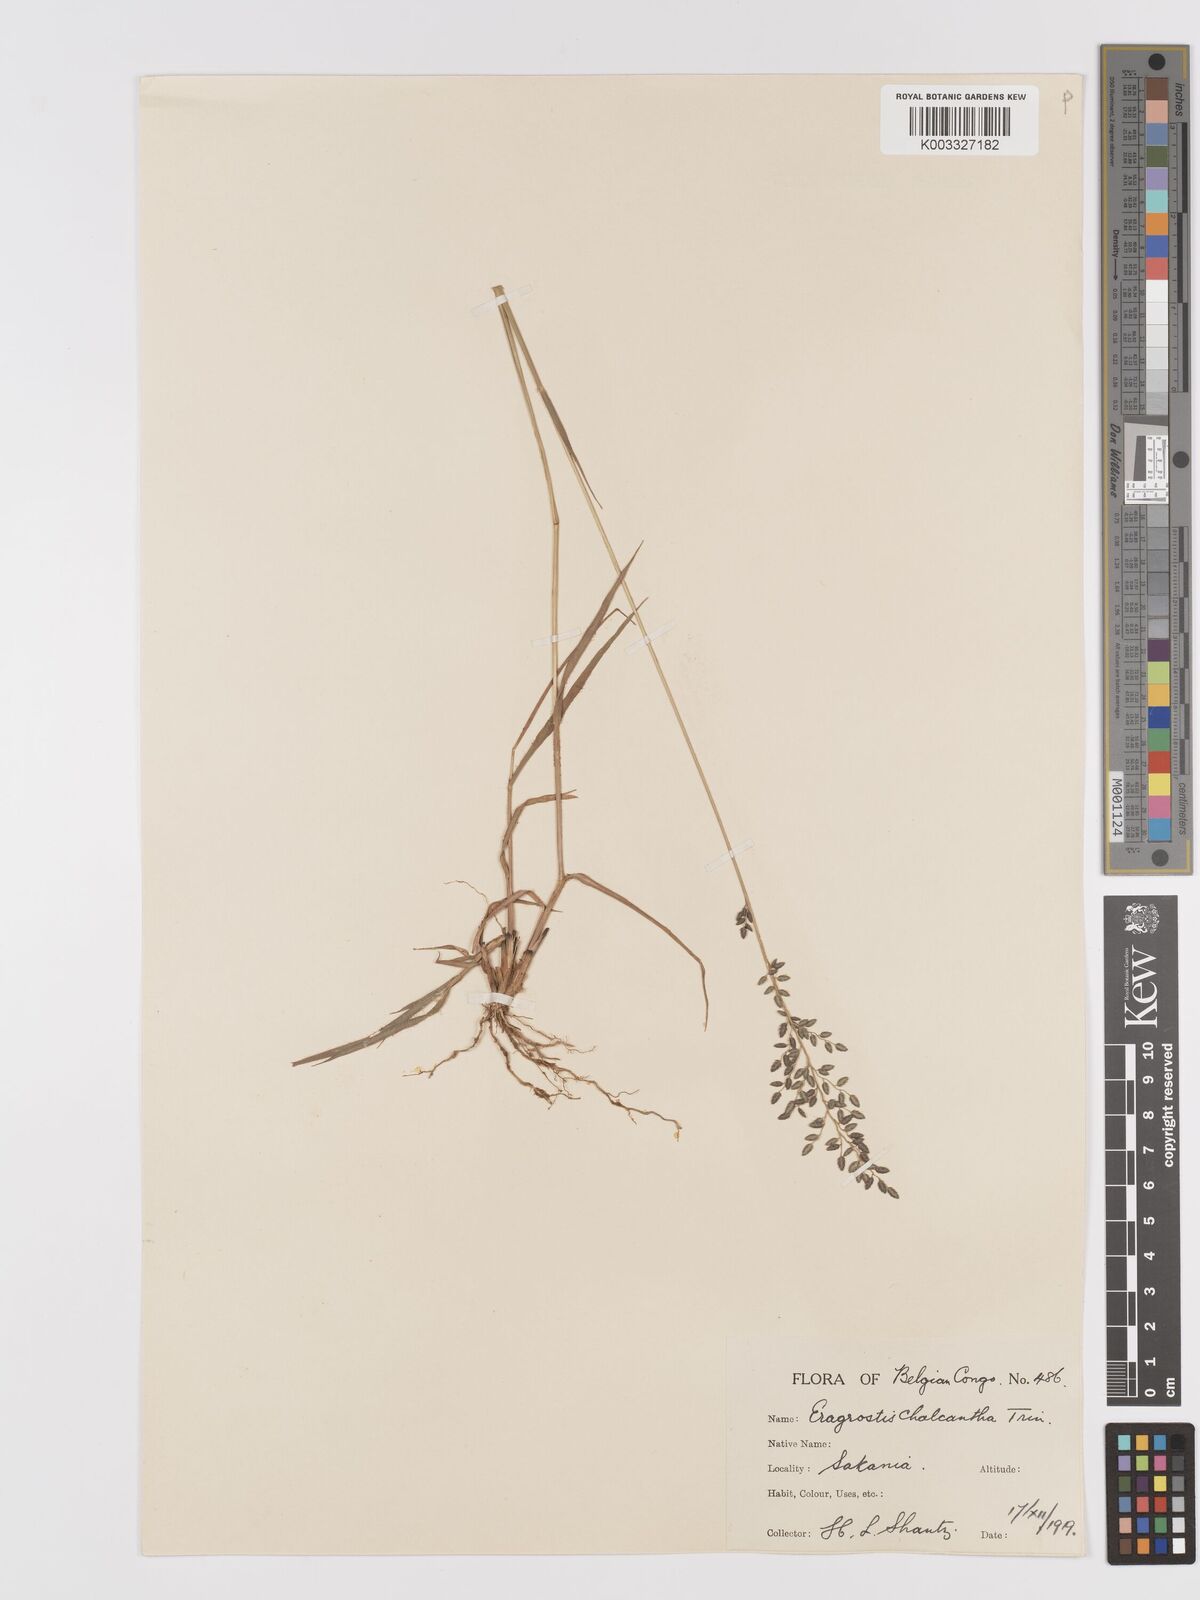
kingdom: Plantae
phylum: Tracheophyta
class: Liliopsida
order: Poales
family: Poaceae
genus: Eragrostis
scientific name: Eragrostis racemosa
